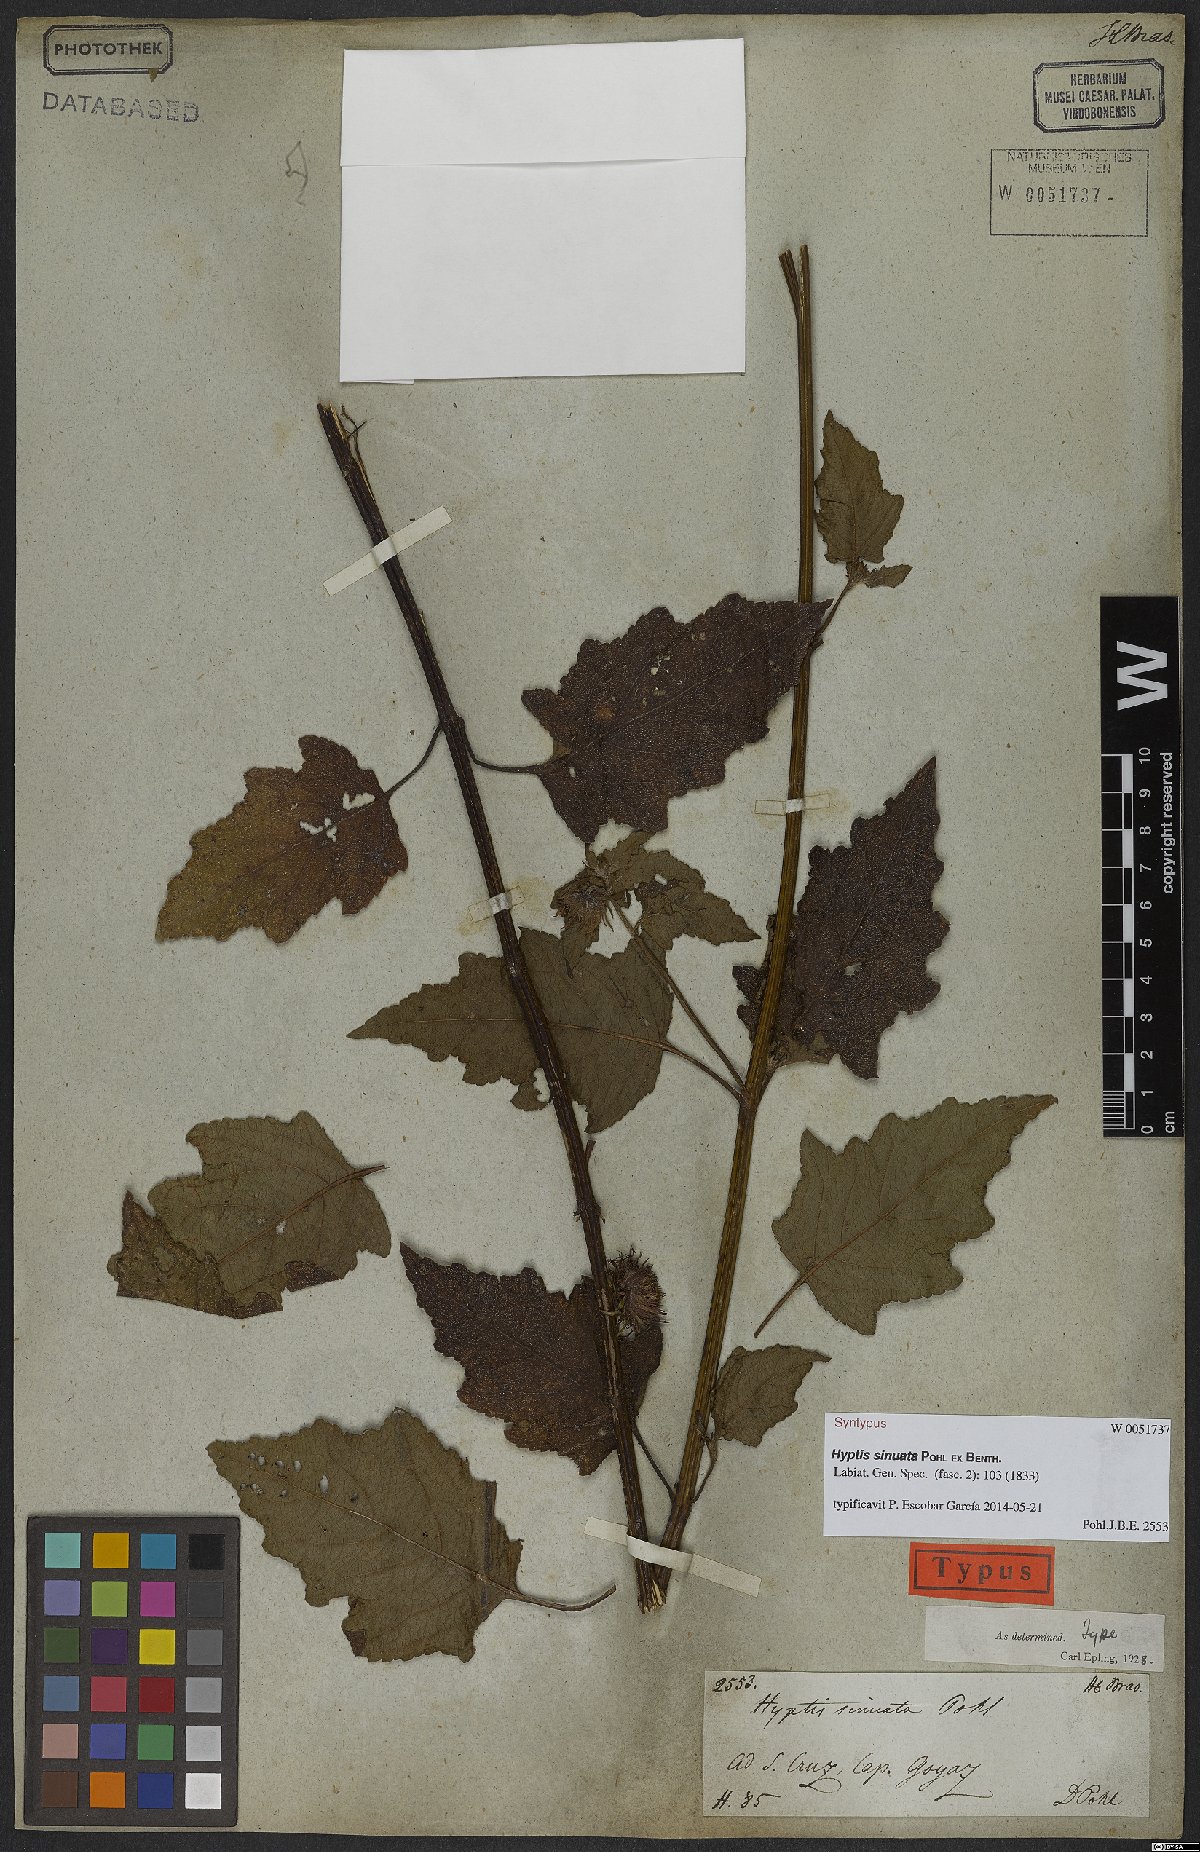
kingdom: Plantae
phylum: Tracheophyta
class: Magnoliopsida
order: Lamiales
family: Lamiaceae
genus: Hyptis
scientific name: Hyptis sinuata
